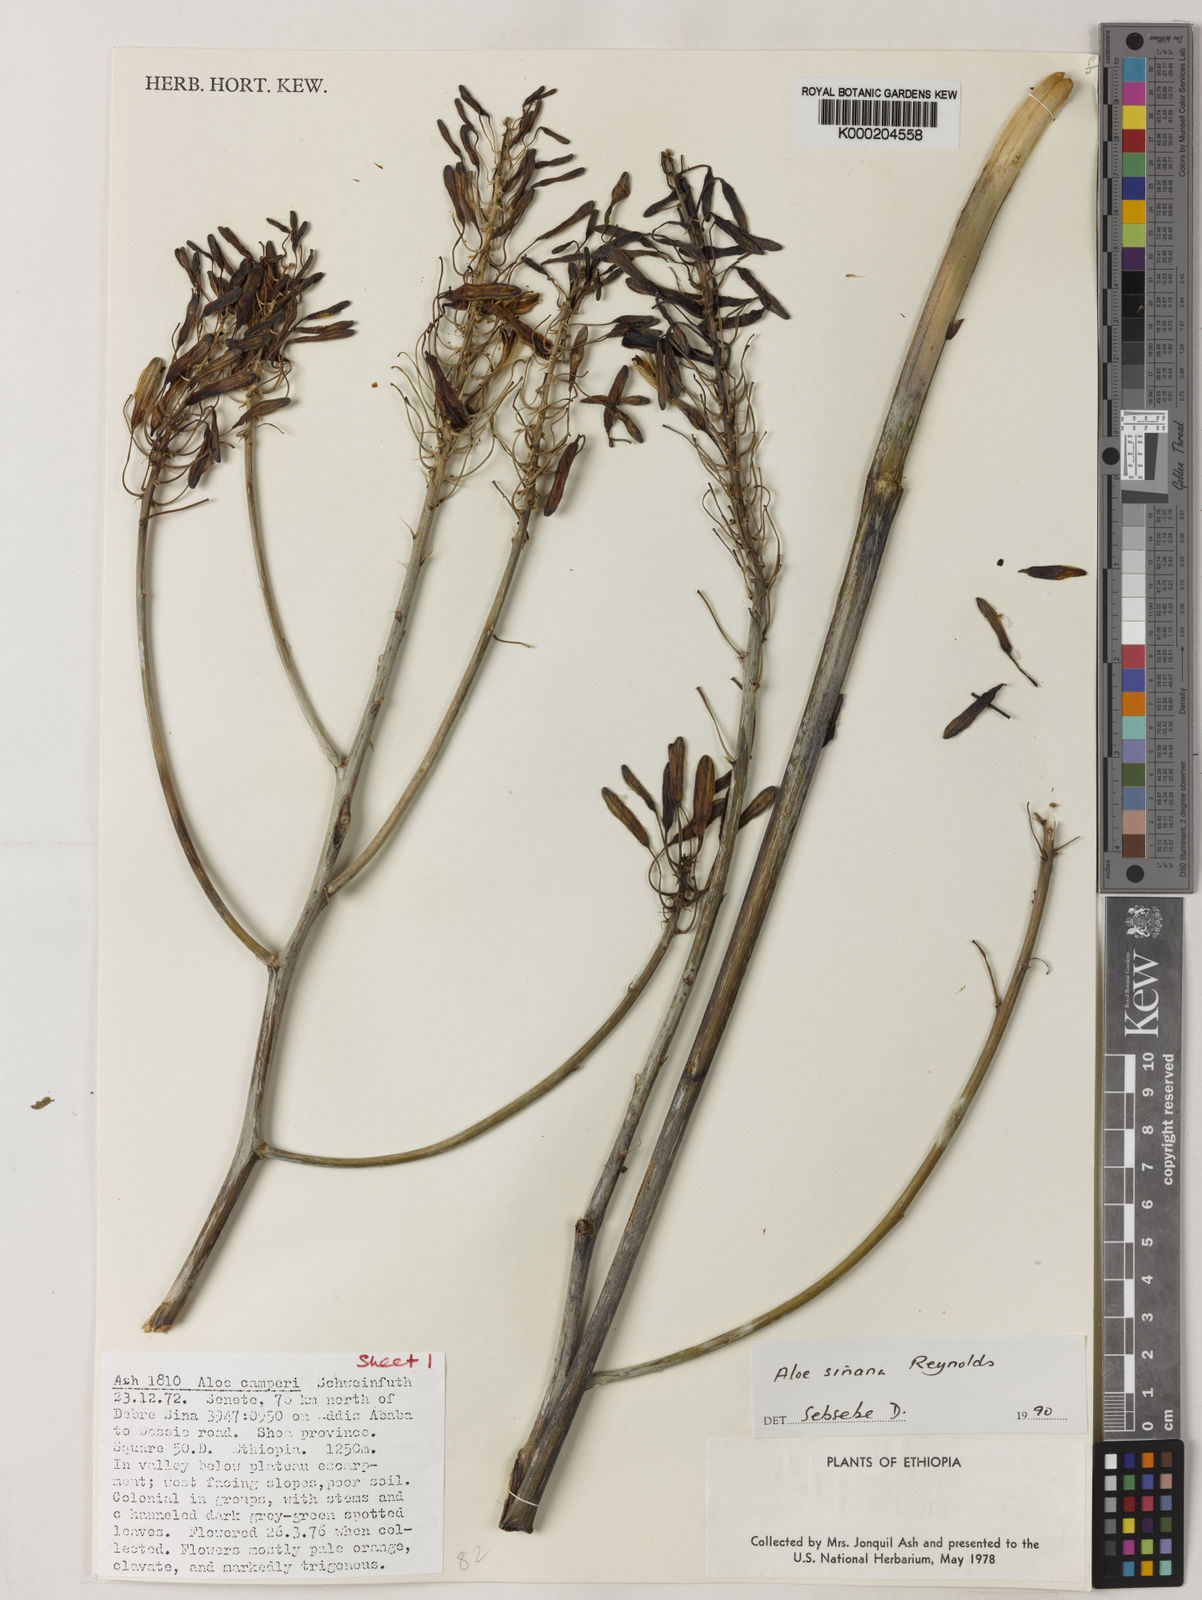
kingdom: Plantae
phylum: Tracheophyta
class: Liliopsida
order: Asparagales
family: Asphodelaceae
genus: Aloe
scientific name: Aloe sinana
